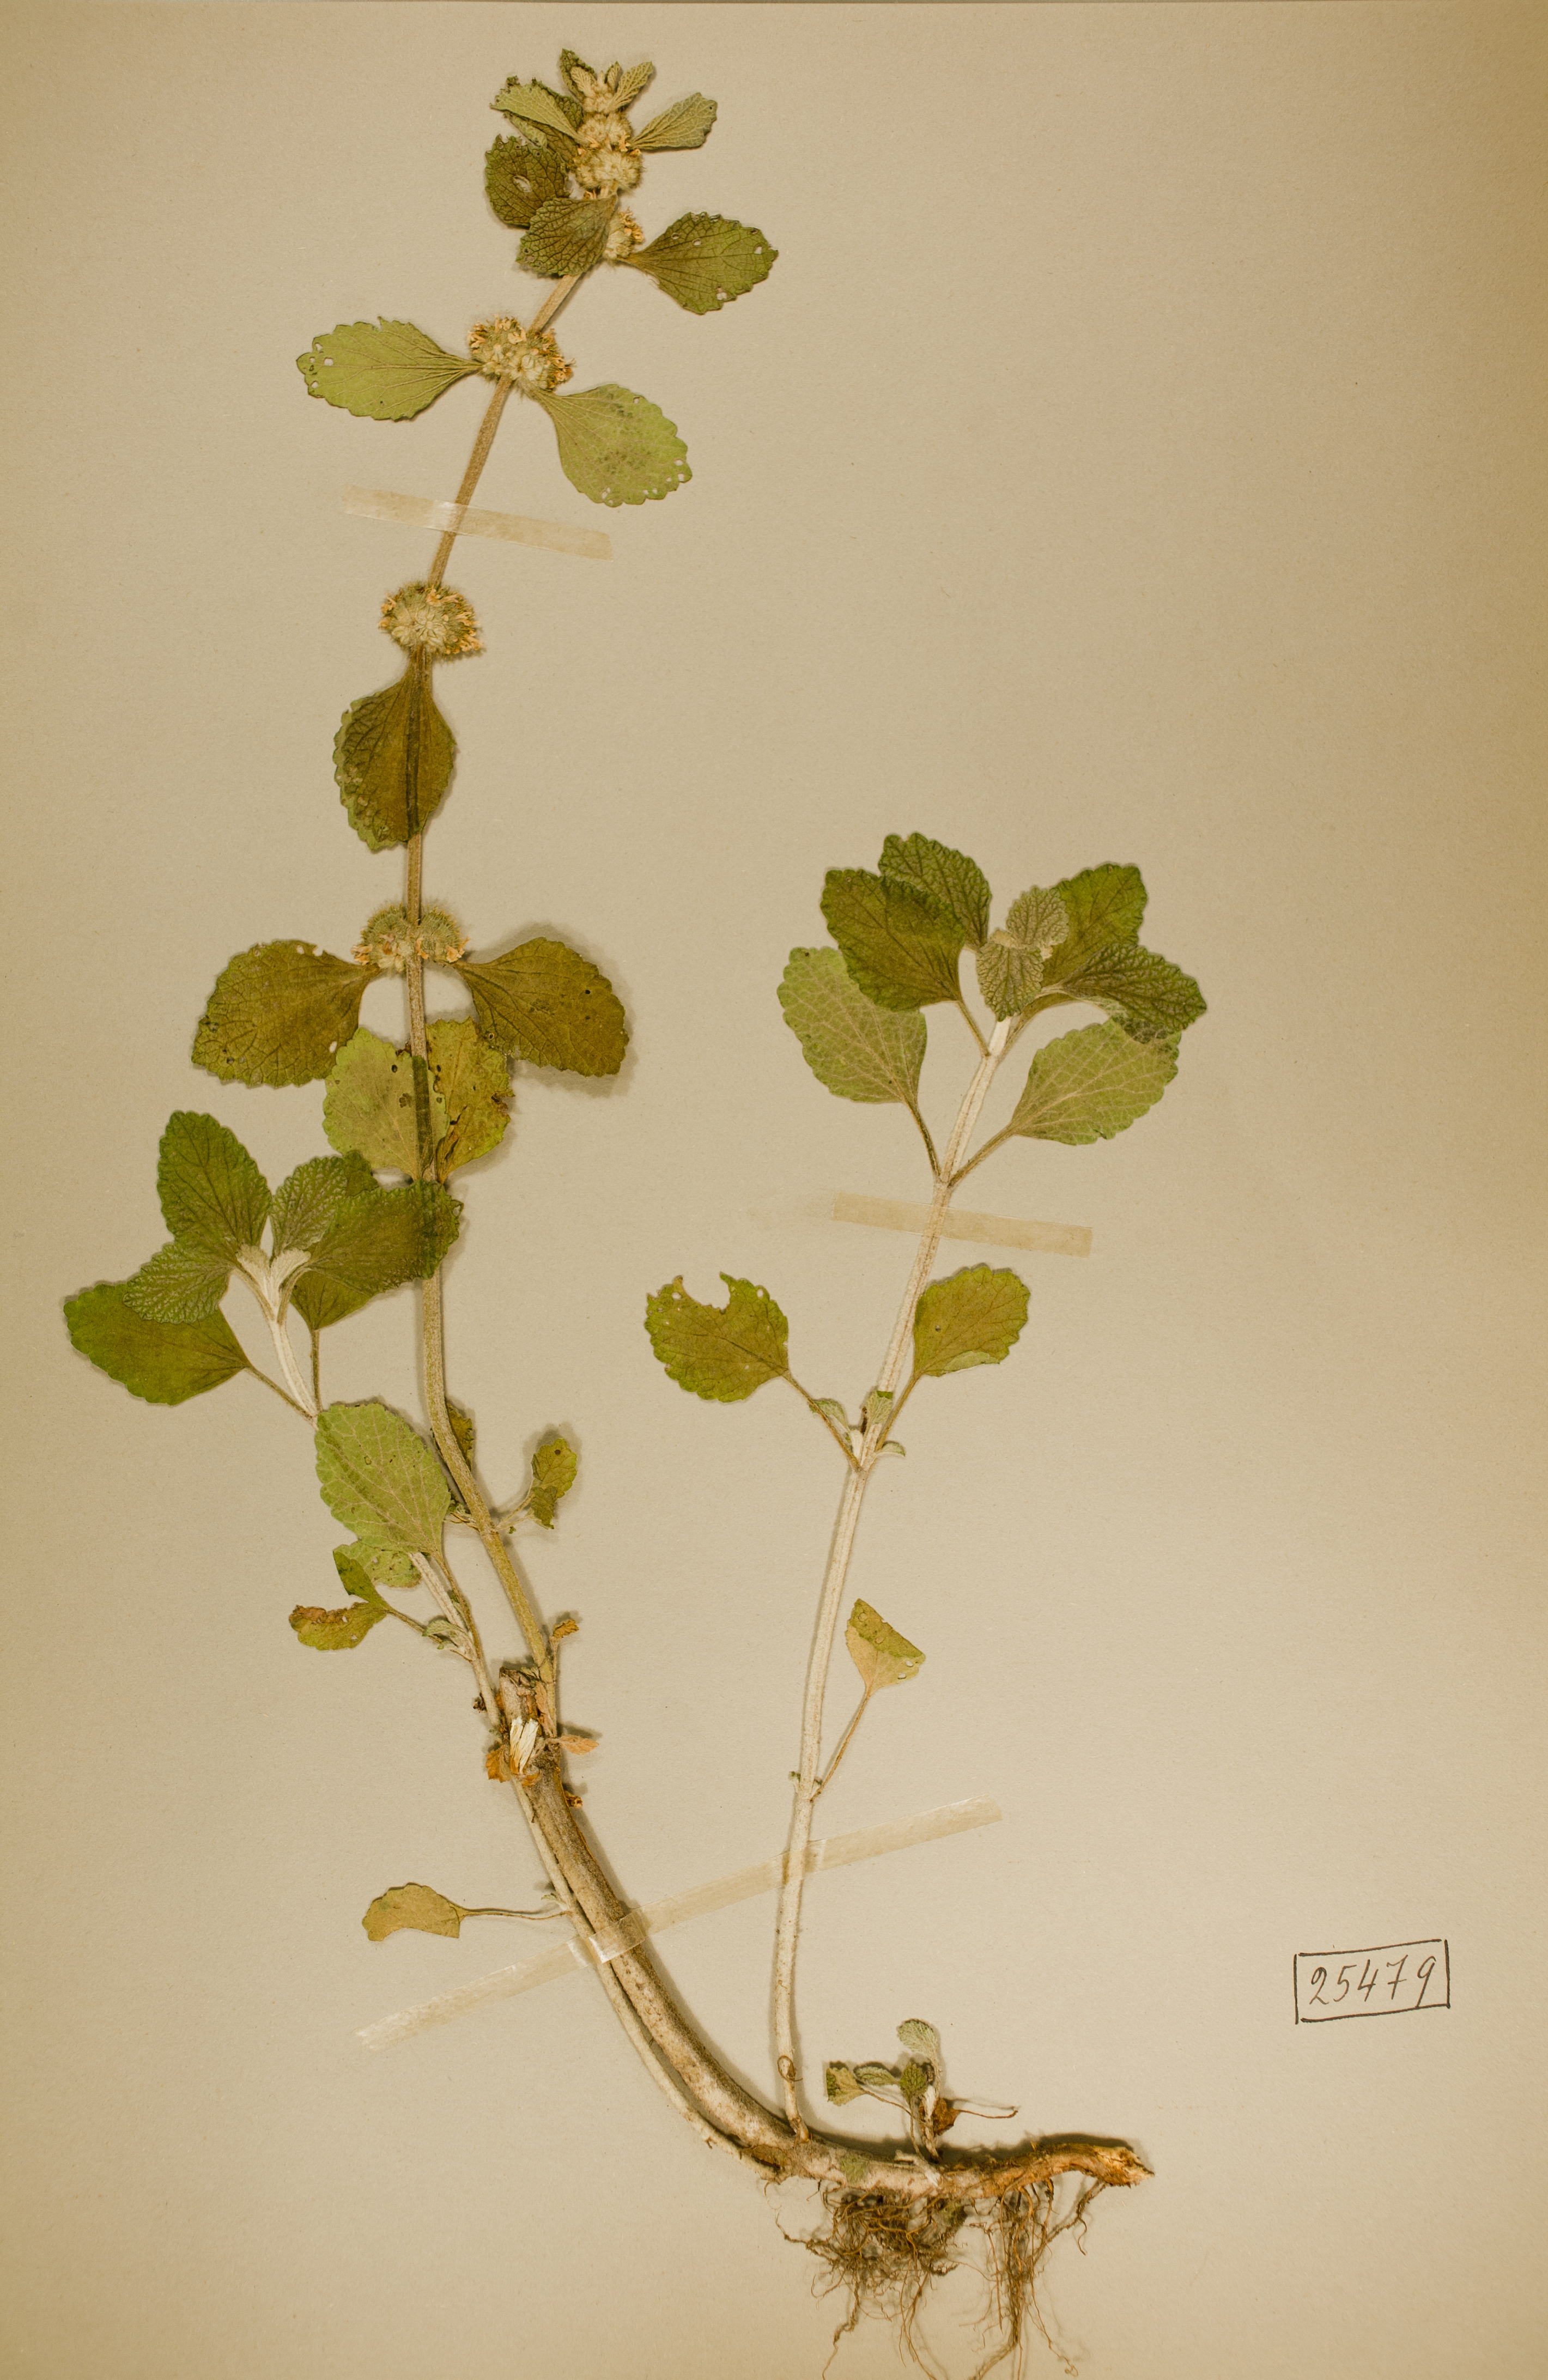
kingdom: Plantae
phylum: Tracheophyta
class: Magnoliopsida
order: Lamiales
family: Lamiaceae
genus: Marrubium
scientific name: Marrubium vulgare
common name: Horehound
